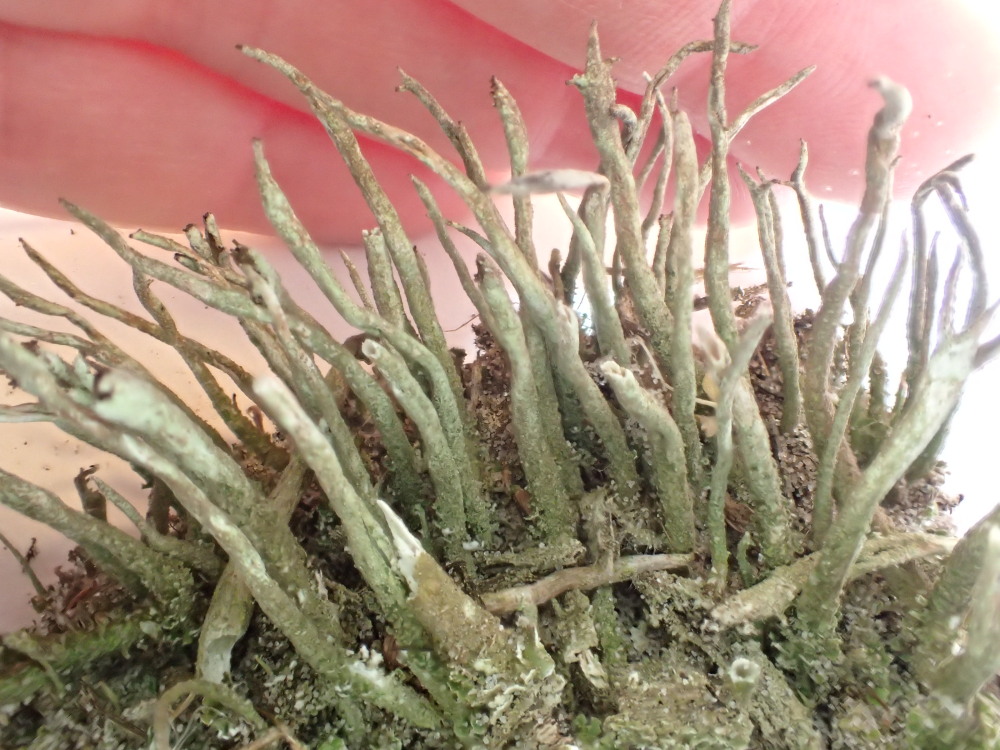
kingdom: Fungi
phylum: Ascomycota
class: Lecanoromycetes
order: Lecanorales
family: Cladoniaceae
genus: Cladonia
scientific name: Cladonia glauca
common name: grågrøn bægerlav
